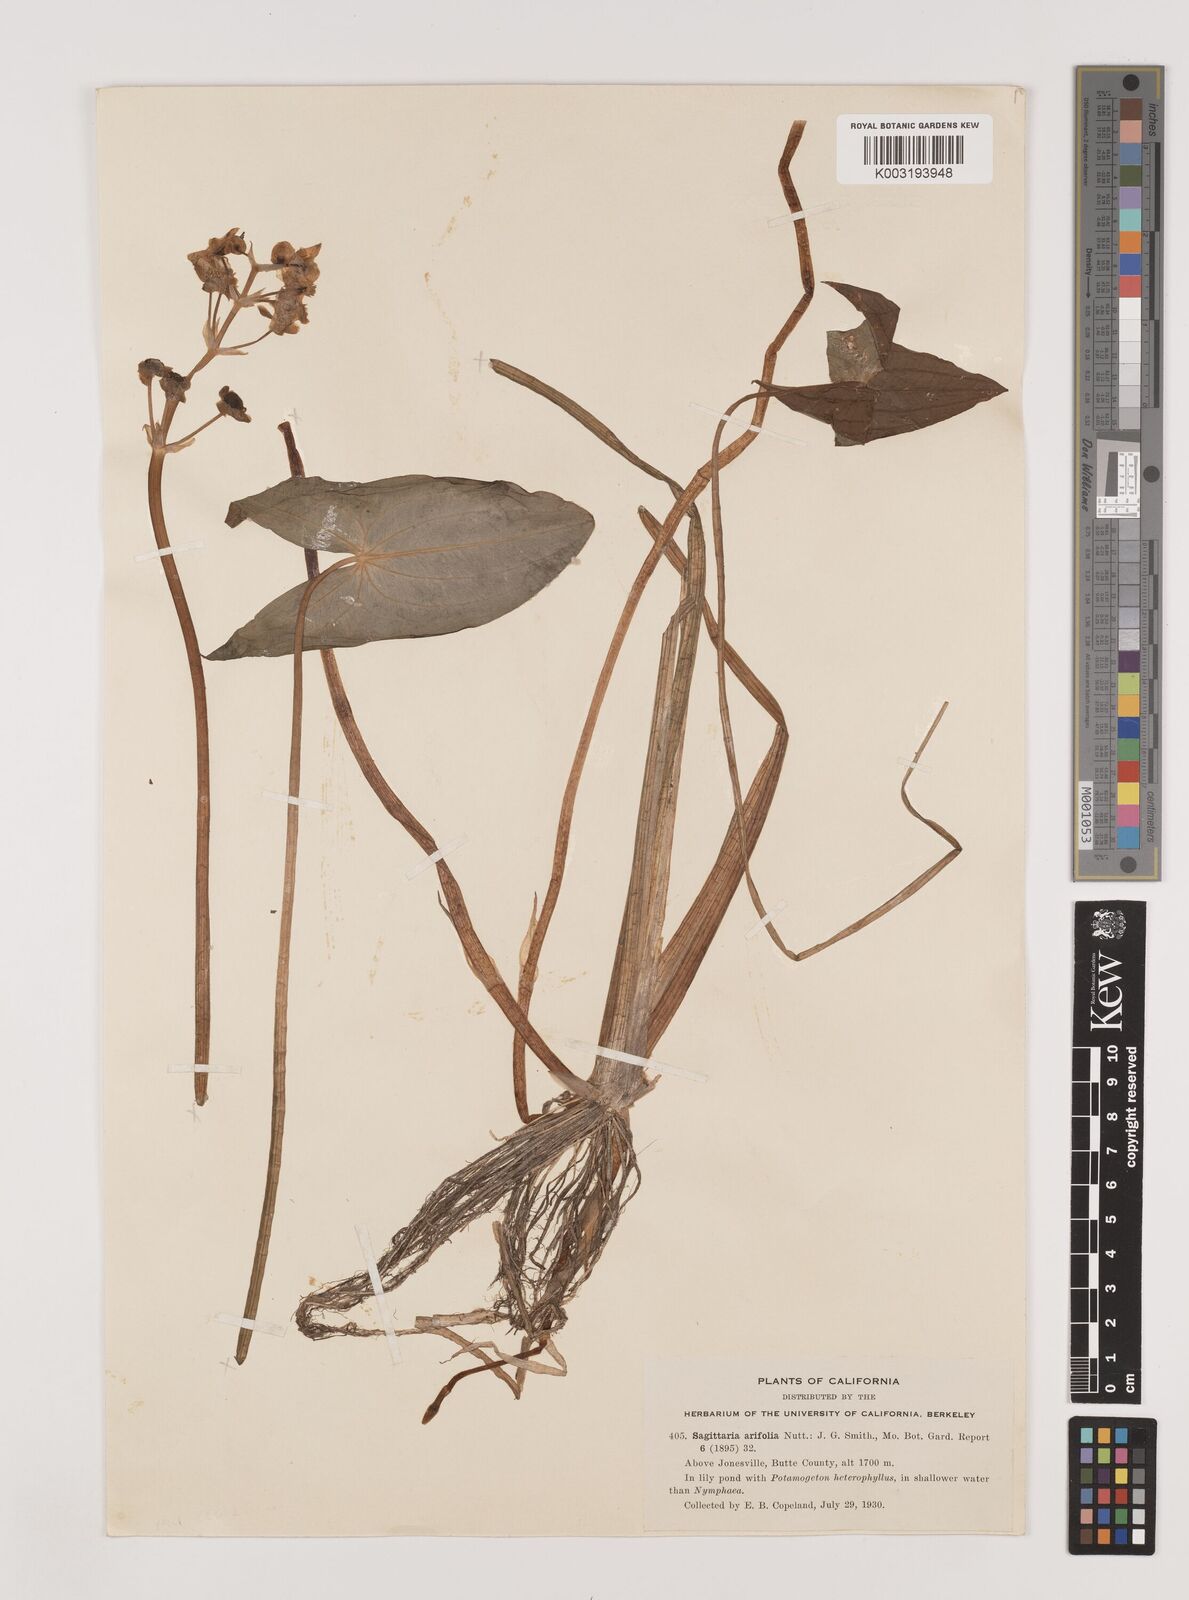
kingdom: Plantae
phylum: Tracheophyta
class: Liliopsida
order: Alismatales
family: Alismataceae
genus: Sagittaria
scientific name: Sagittaria cuneata
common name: Northern arrowhead
